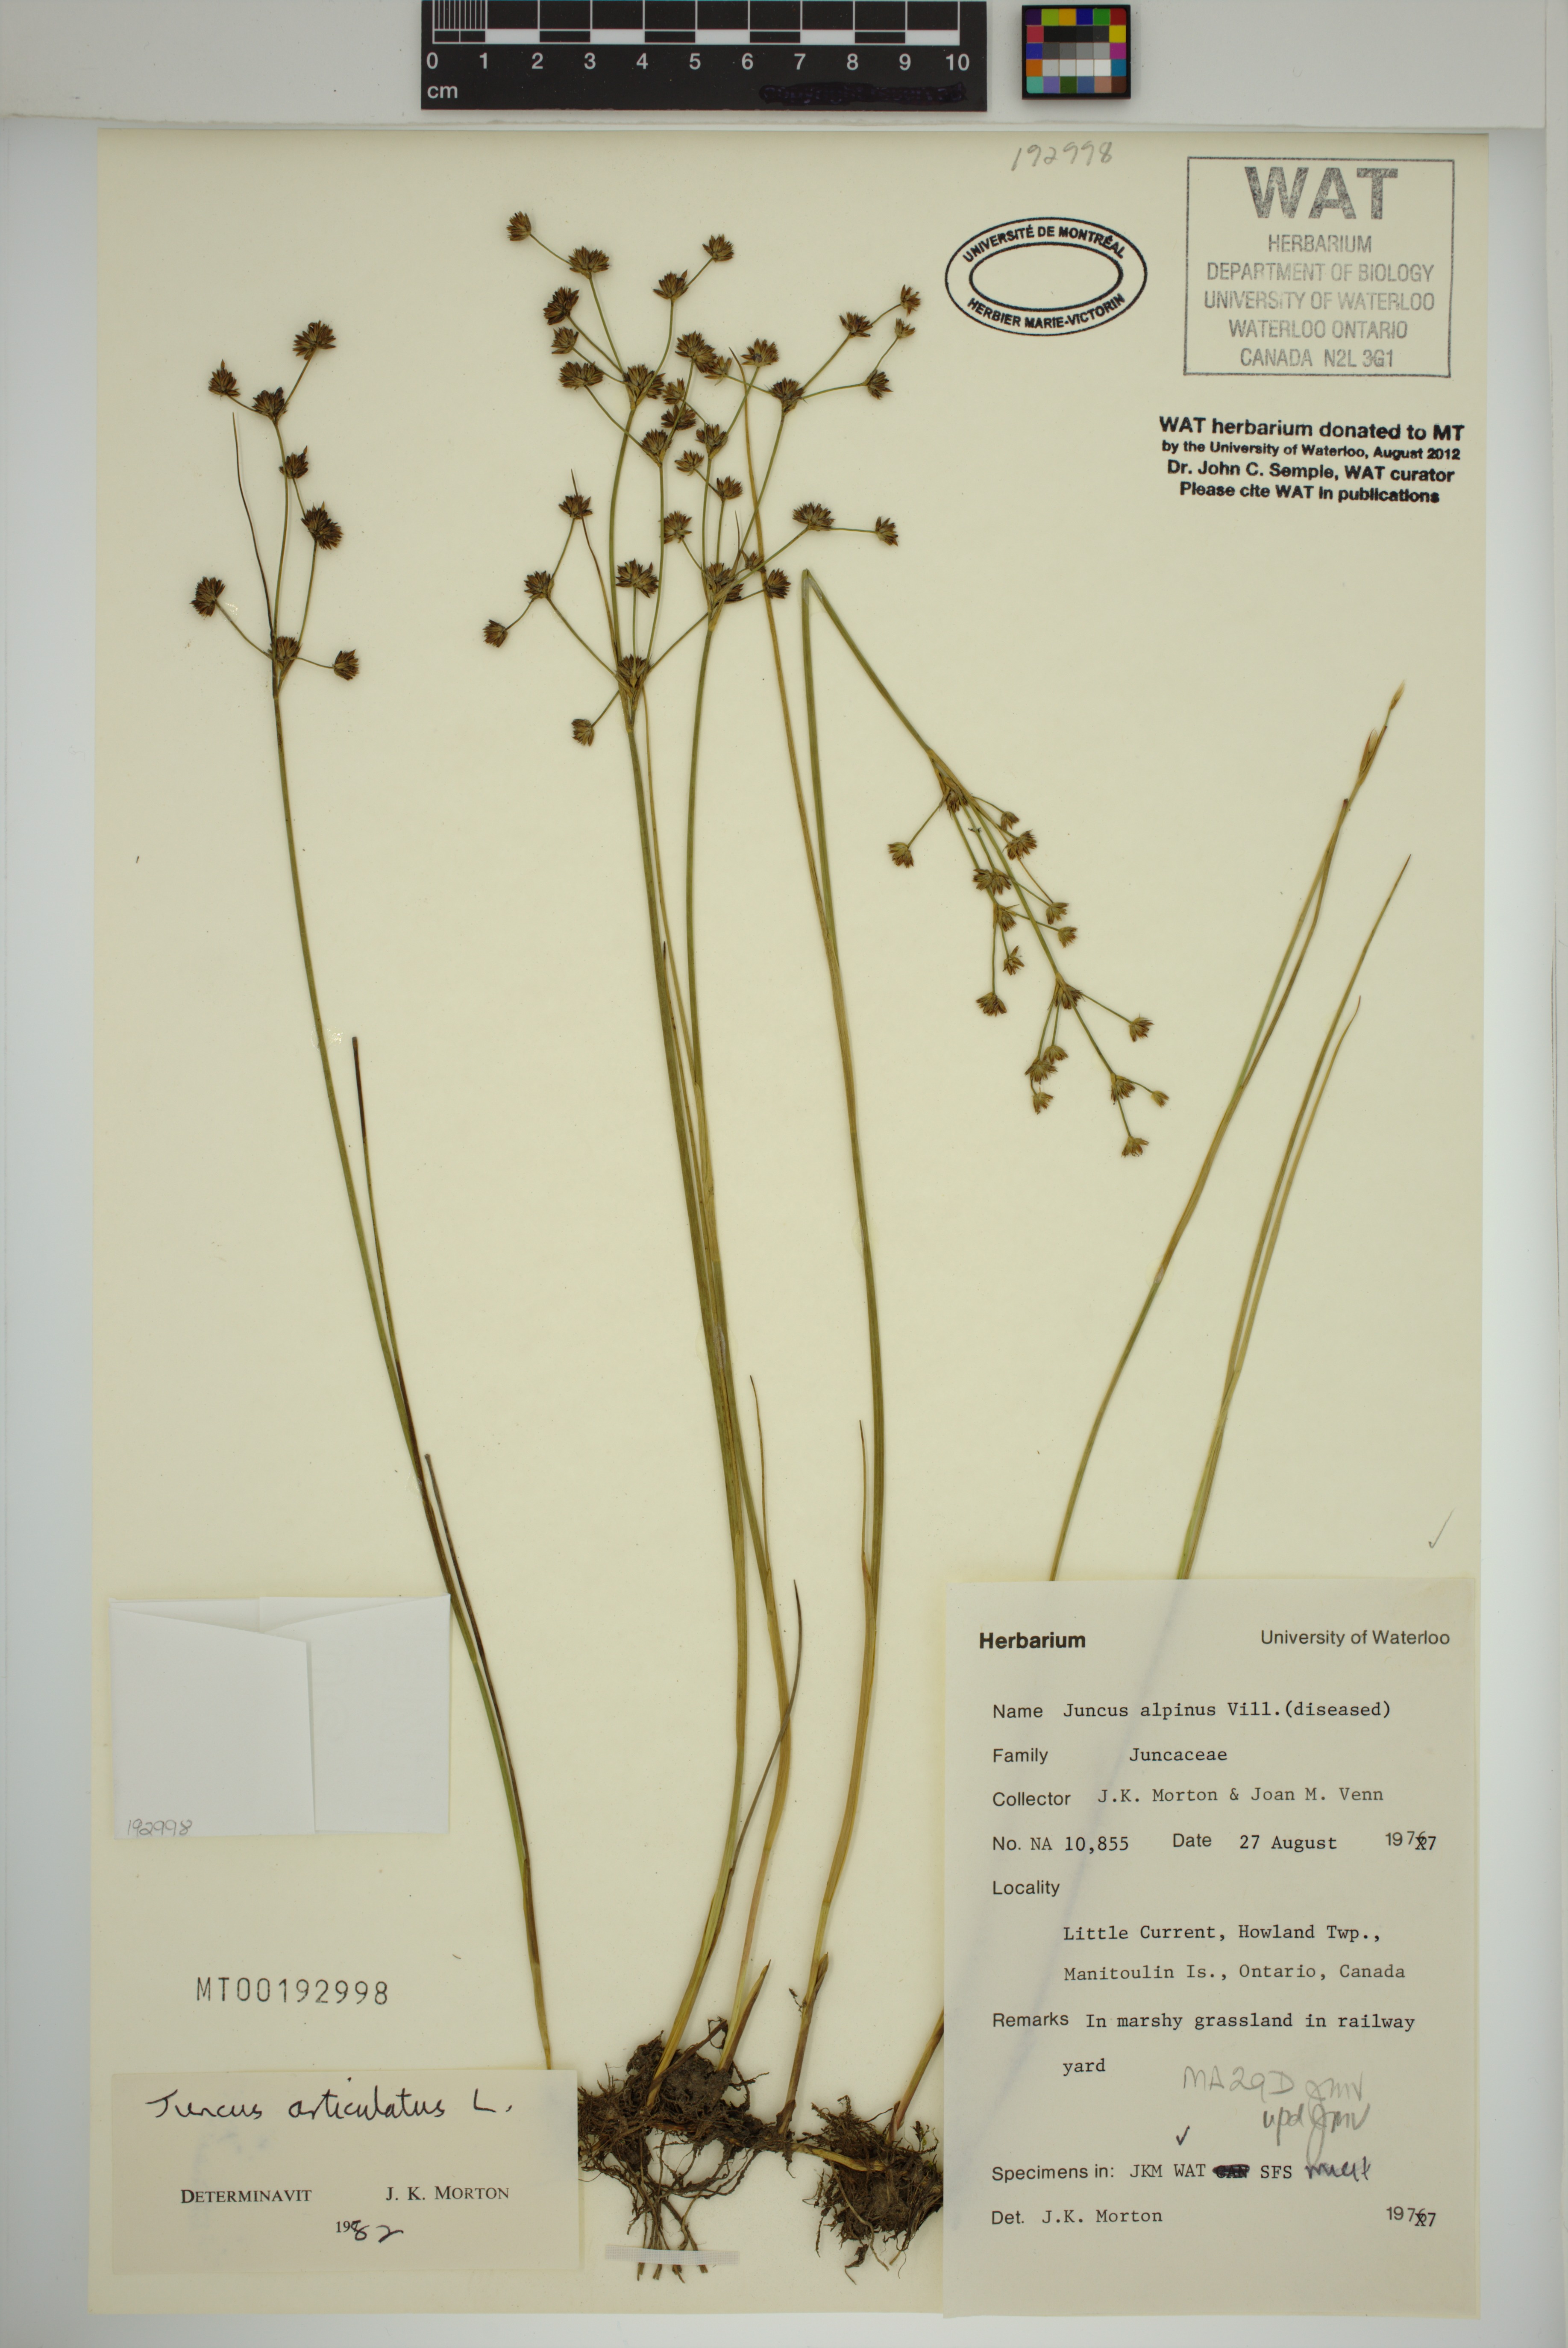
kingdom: Plantae
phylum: Tracheophyta
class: Liliopsida
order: Poales
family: Juncaceae
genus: Juncus
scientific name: Juncus articulatus
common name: Jointed rush
